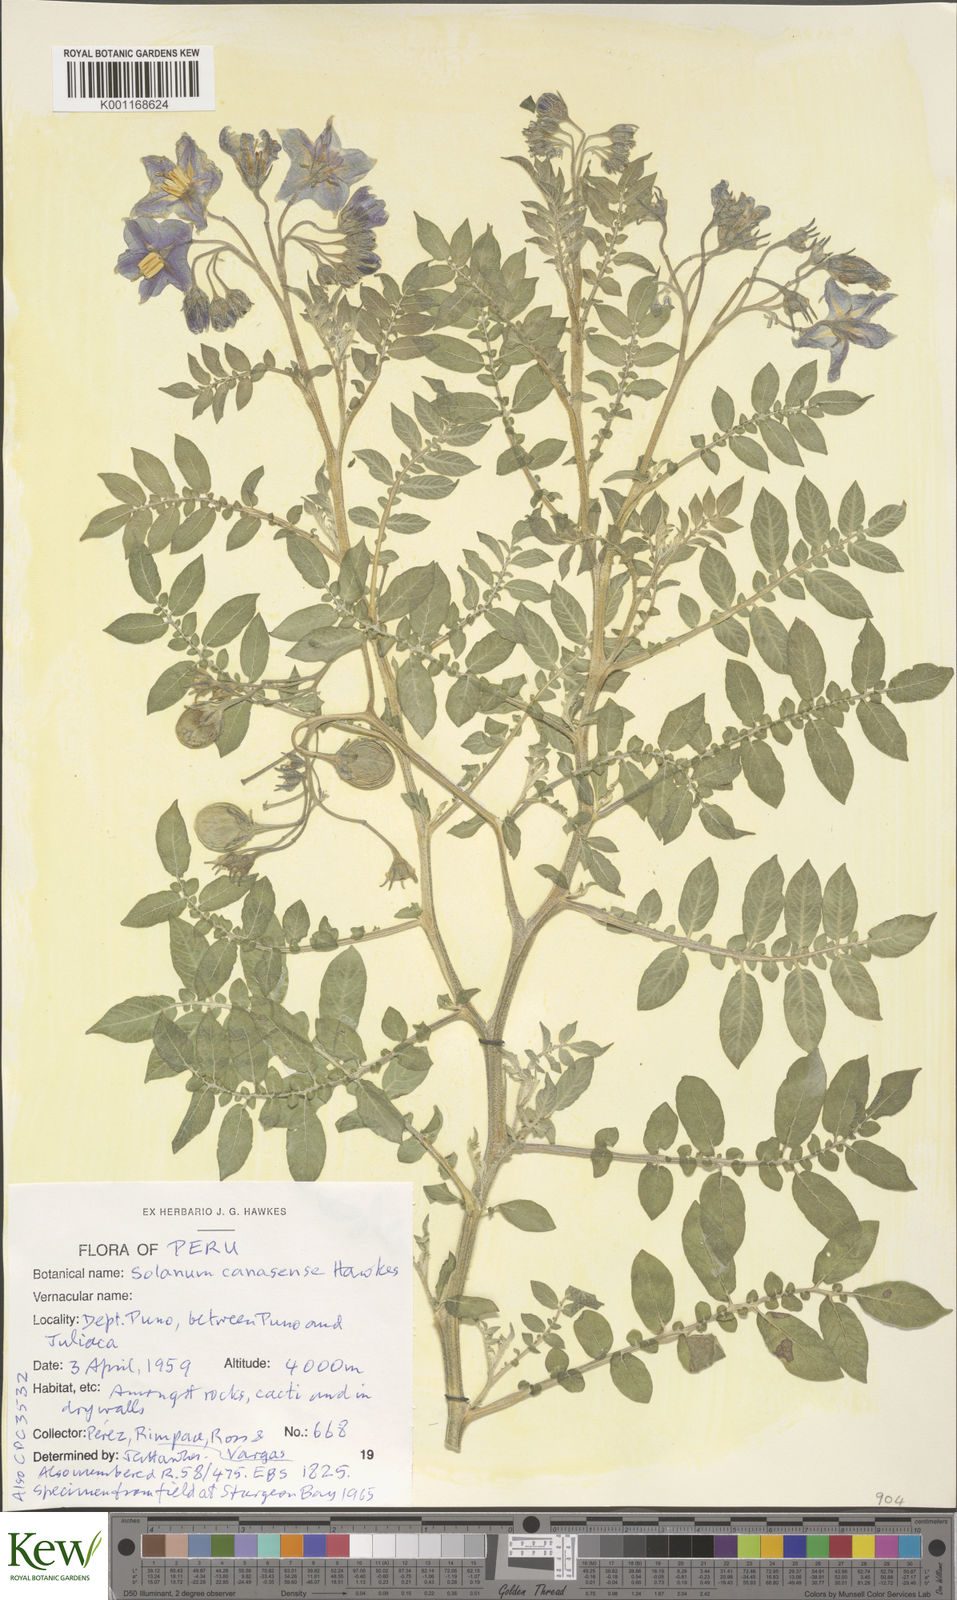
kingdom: Plantae
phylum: Tracheophyta
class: Magnoliopsida
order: Solanales
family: Solanaceae
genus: Solanum
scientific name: Solanum candolleanum
